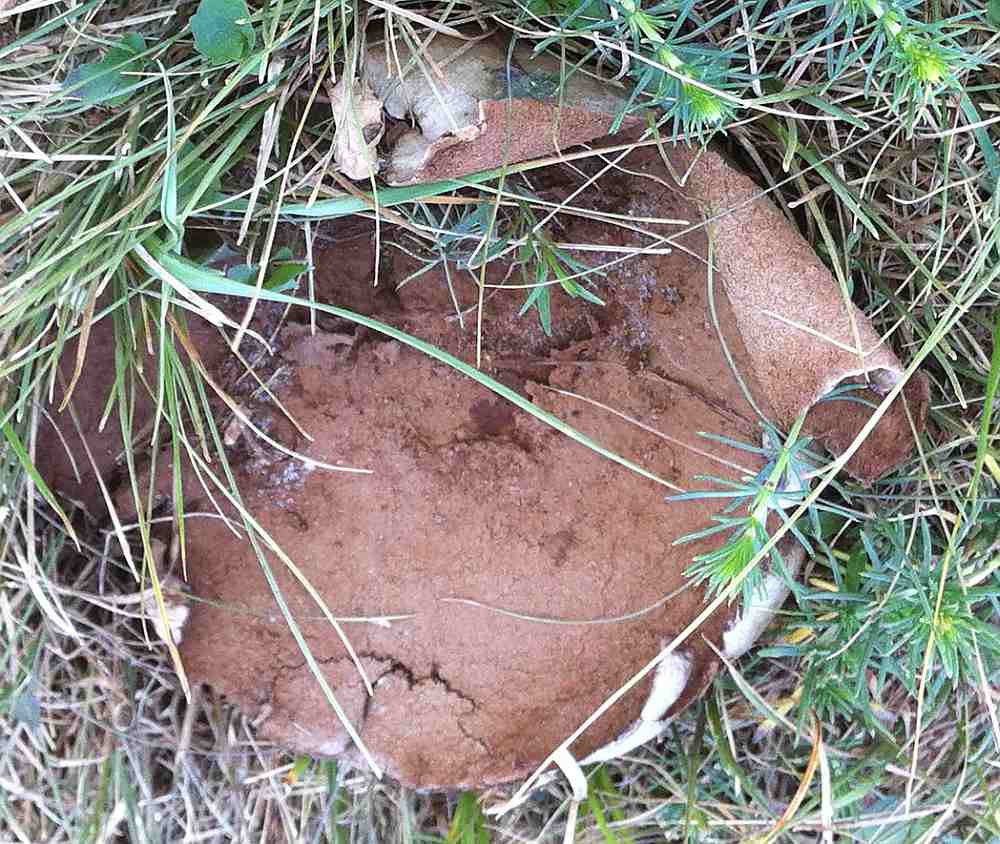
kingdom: Fungi
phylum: Basidiomycota
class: Agaricomycetes
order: Agaricales
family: Lycoperdaceae
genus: Bovistella
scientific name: Bovistella utriformis
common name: skællet støvbold
